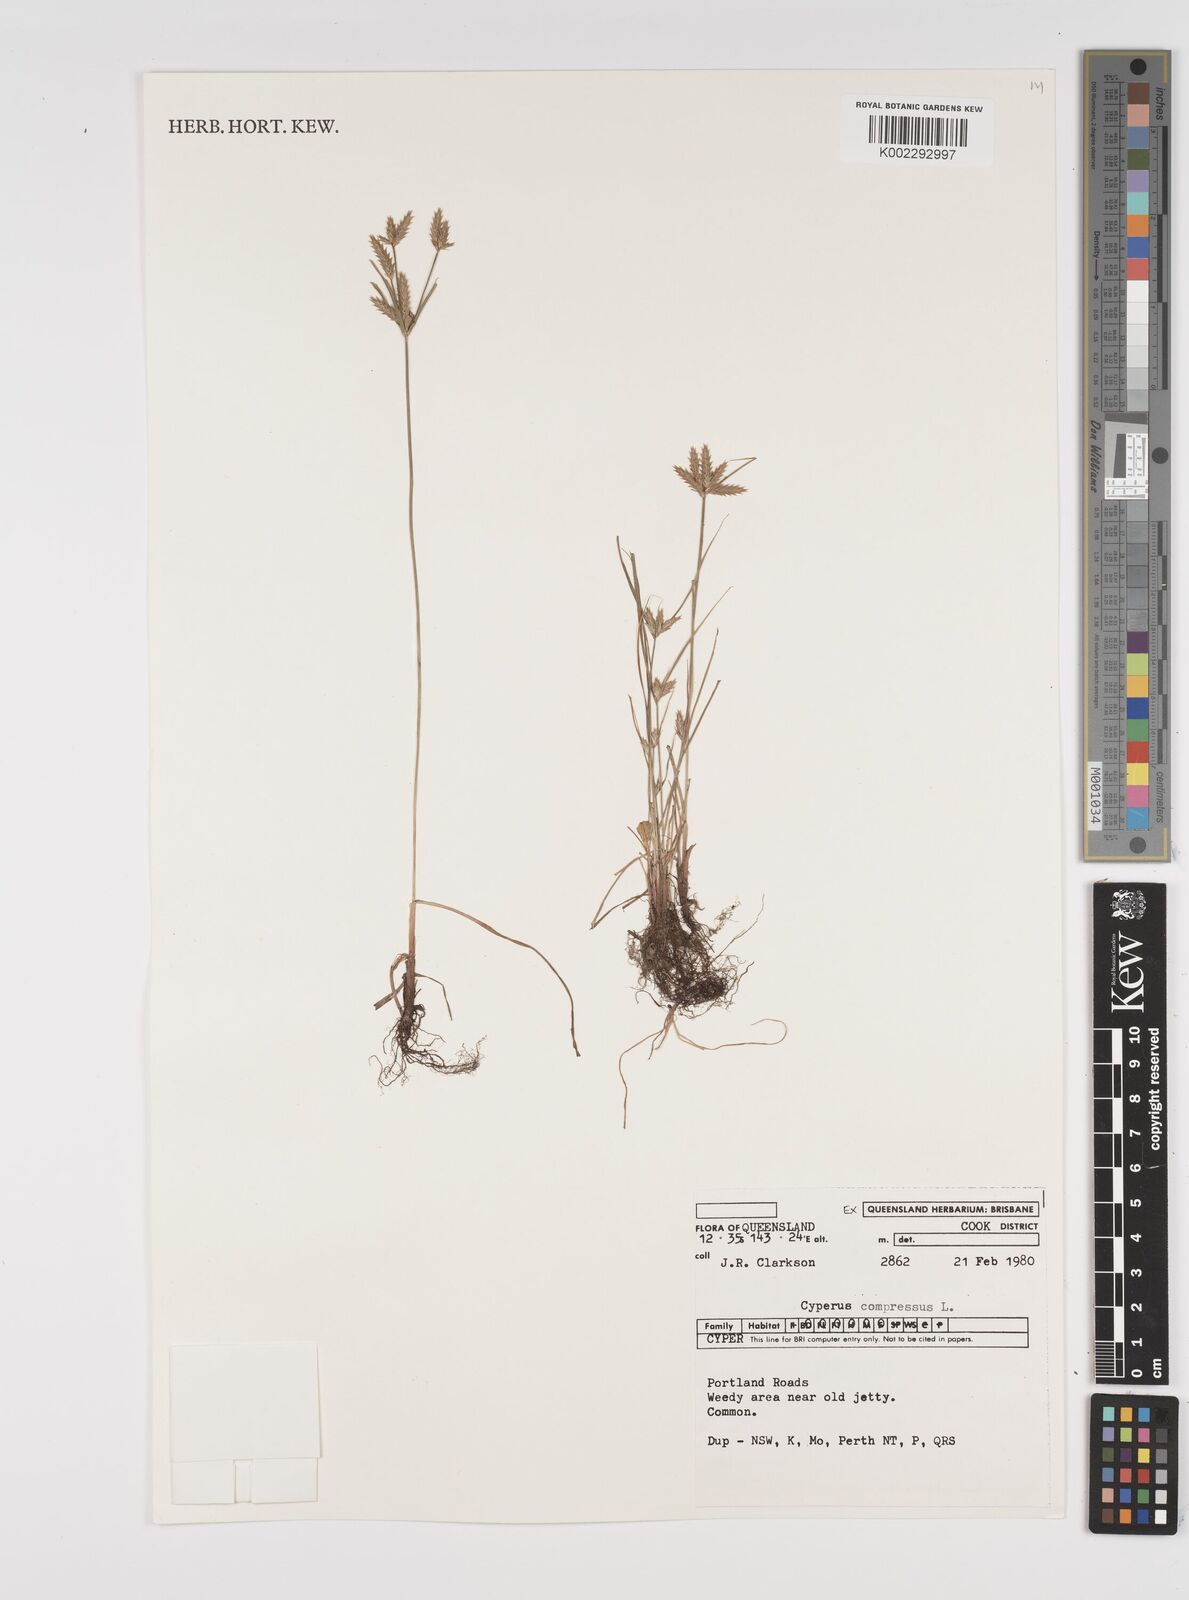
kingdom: Plantae
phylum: Tracheophyta
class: Liliopsida
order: Poales
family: Cyperaceae
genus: Cyperus
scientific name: Cyperus compressus
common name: Poorland flatsedge
